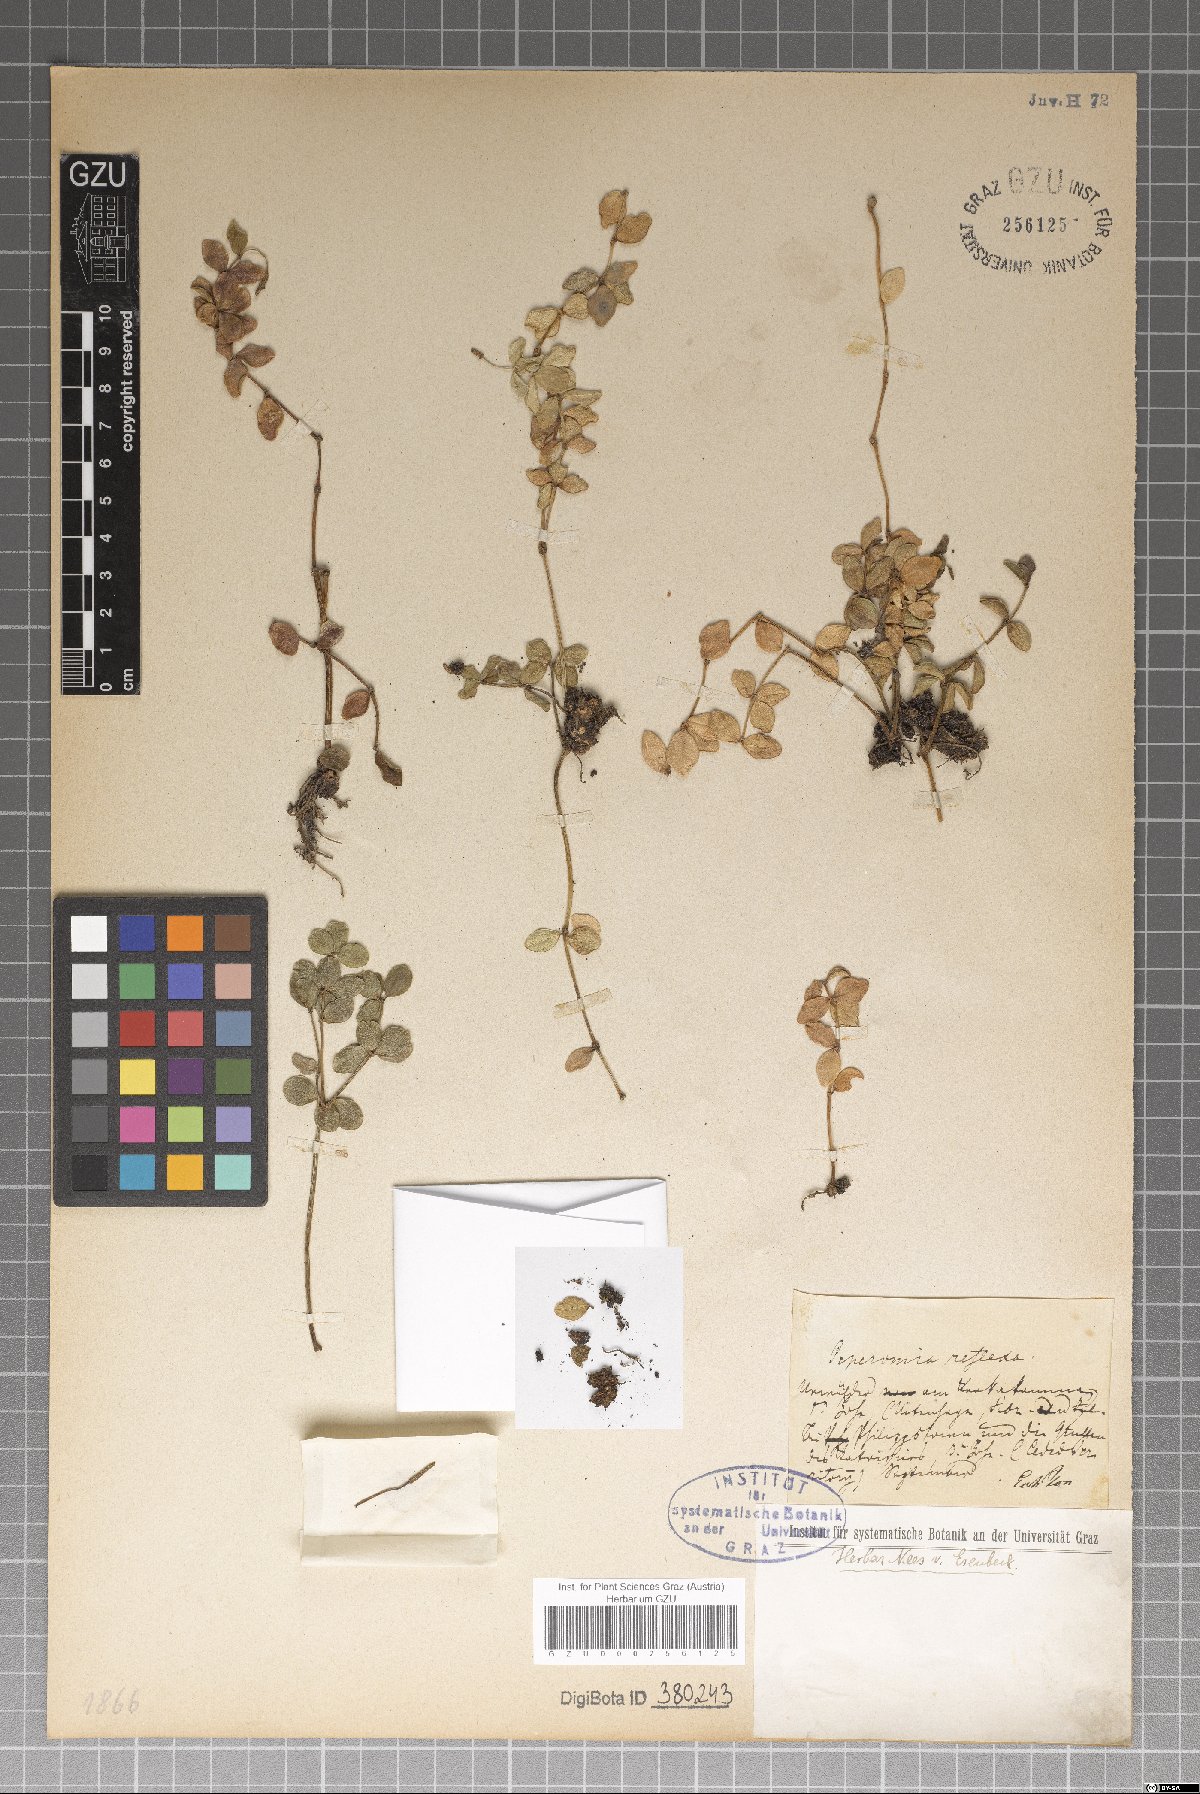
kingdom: Plantae
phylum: Tracheophyta
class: Magnoliopsida
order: Piperales
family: Piperaceae
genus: Peperomia
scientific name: Peperomia reflexa
